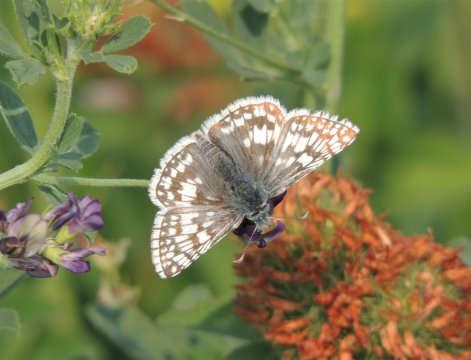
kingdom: Animalia
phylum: Arthropoda
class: Insecta
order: Lepidoptera
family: Hesperiidae
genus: Pyrgus
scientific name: Pyrgus communis
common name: Common Checkered-Skipper
